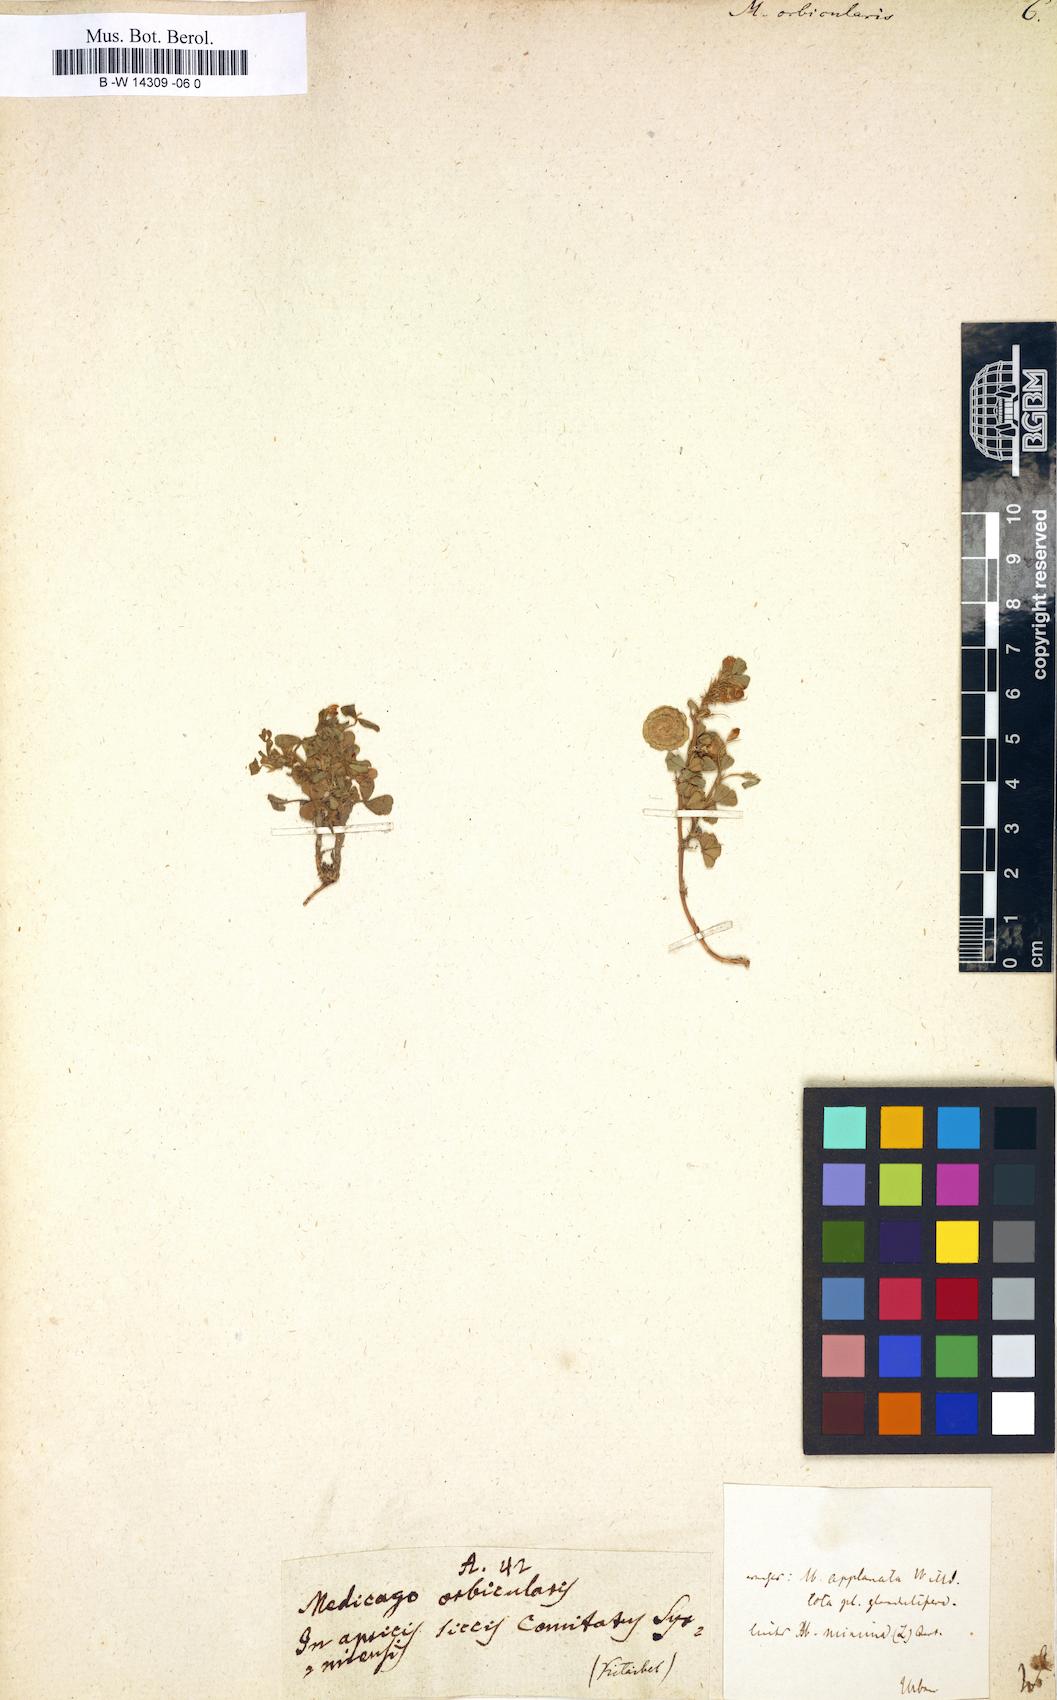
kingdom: Plantae
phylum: Tracheophyta
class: Magnoliopsida
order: Fabales
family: Fabaceae
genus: Medicago
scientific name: Medicago orbicularis
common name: Button medick
